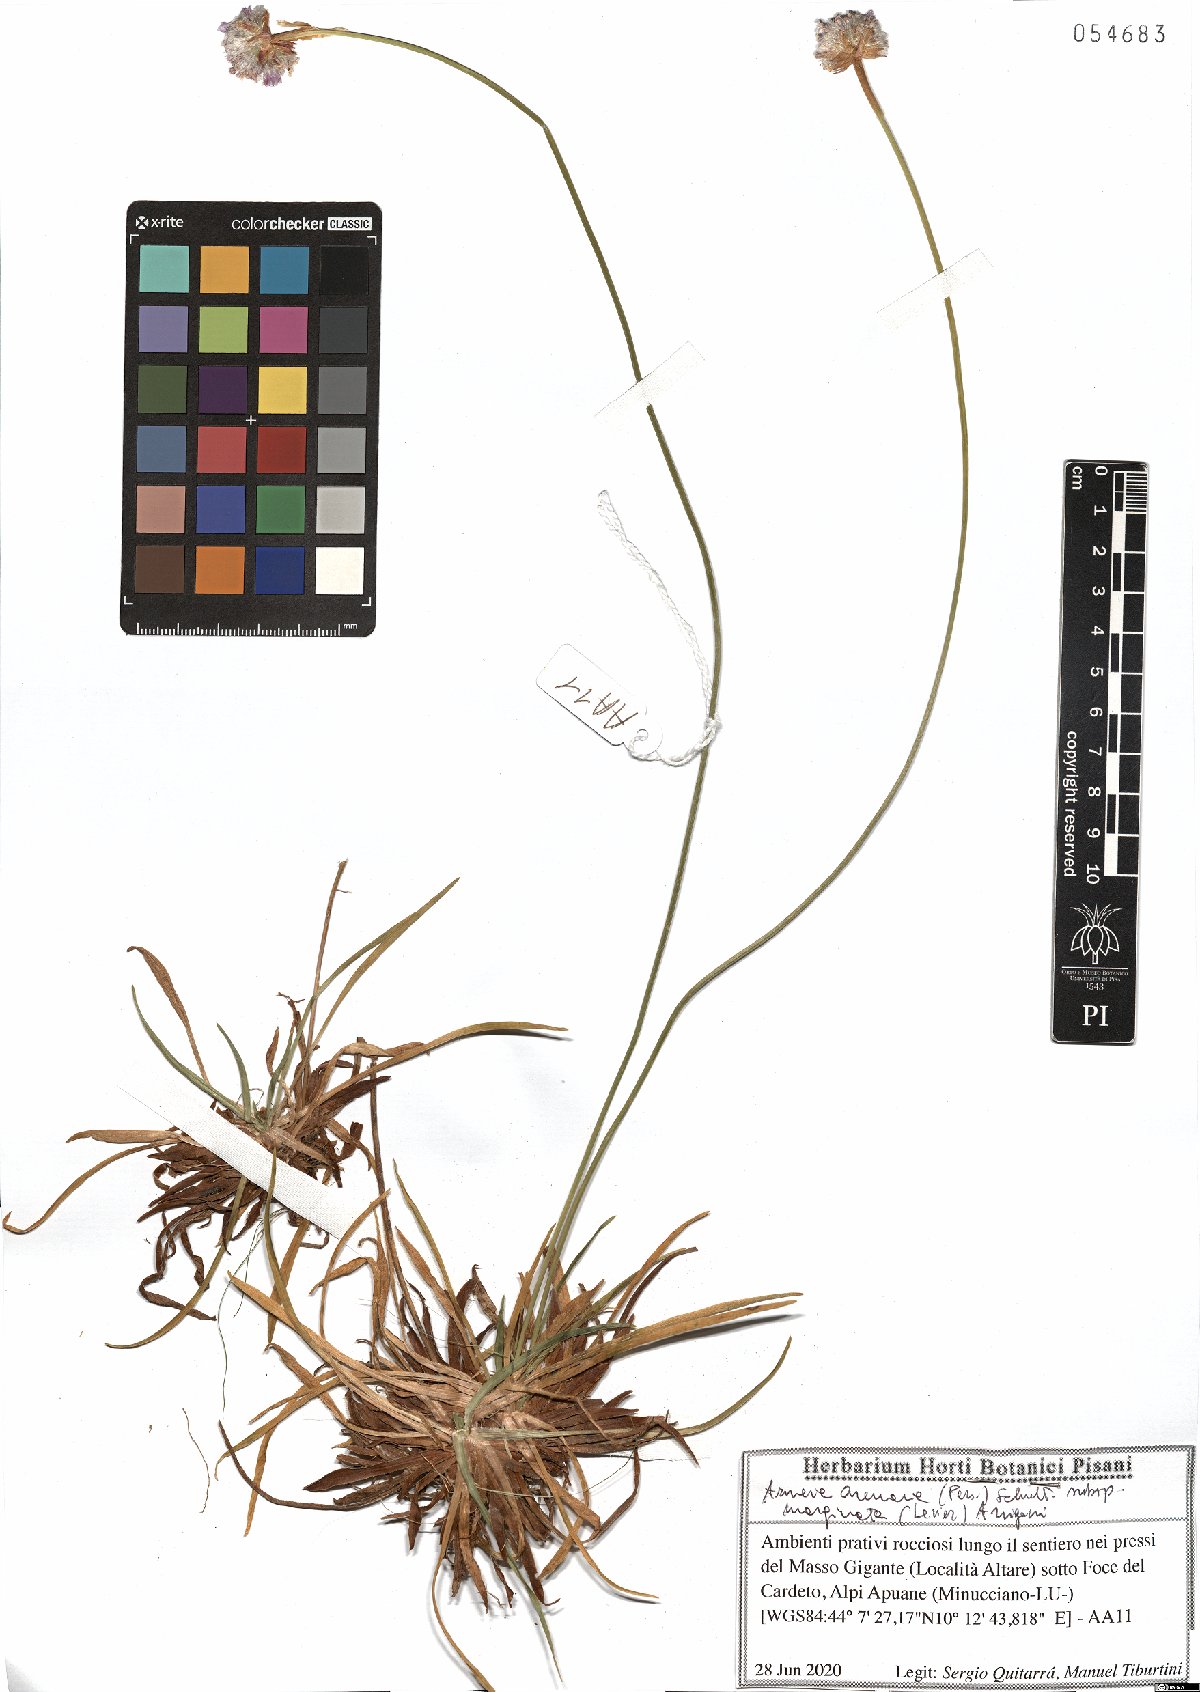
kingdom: Plantae
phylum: Tracheophyta
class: Magnoliopsida
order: Caryophyllales
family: Plumbaginaceae
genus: Armeria
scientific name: Armeria arenaria
